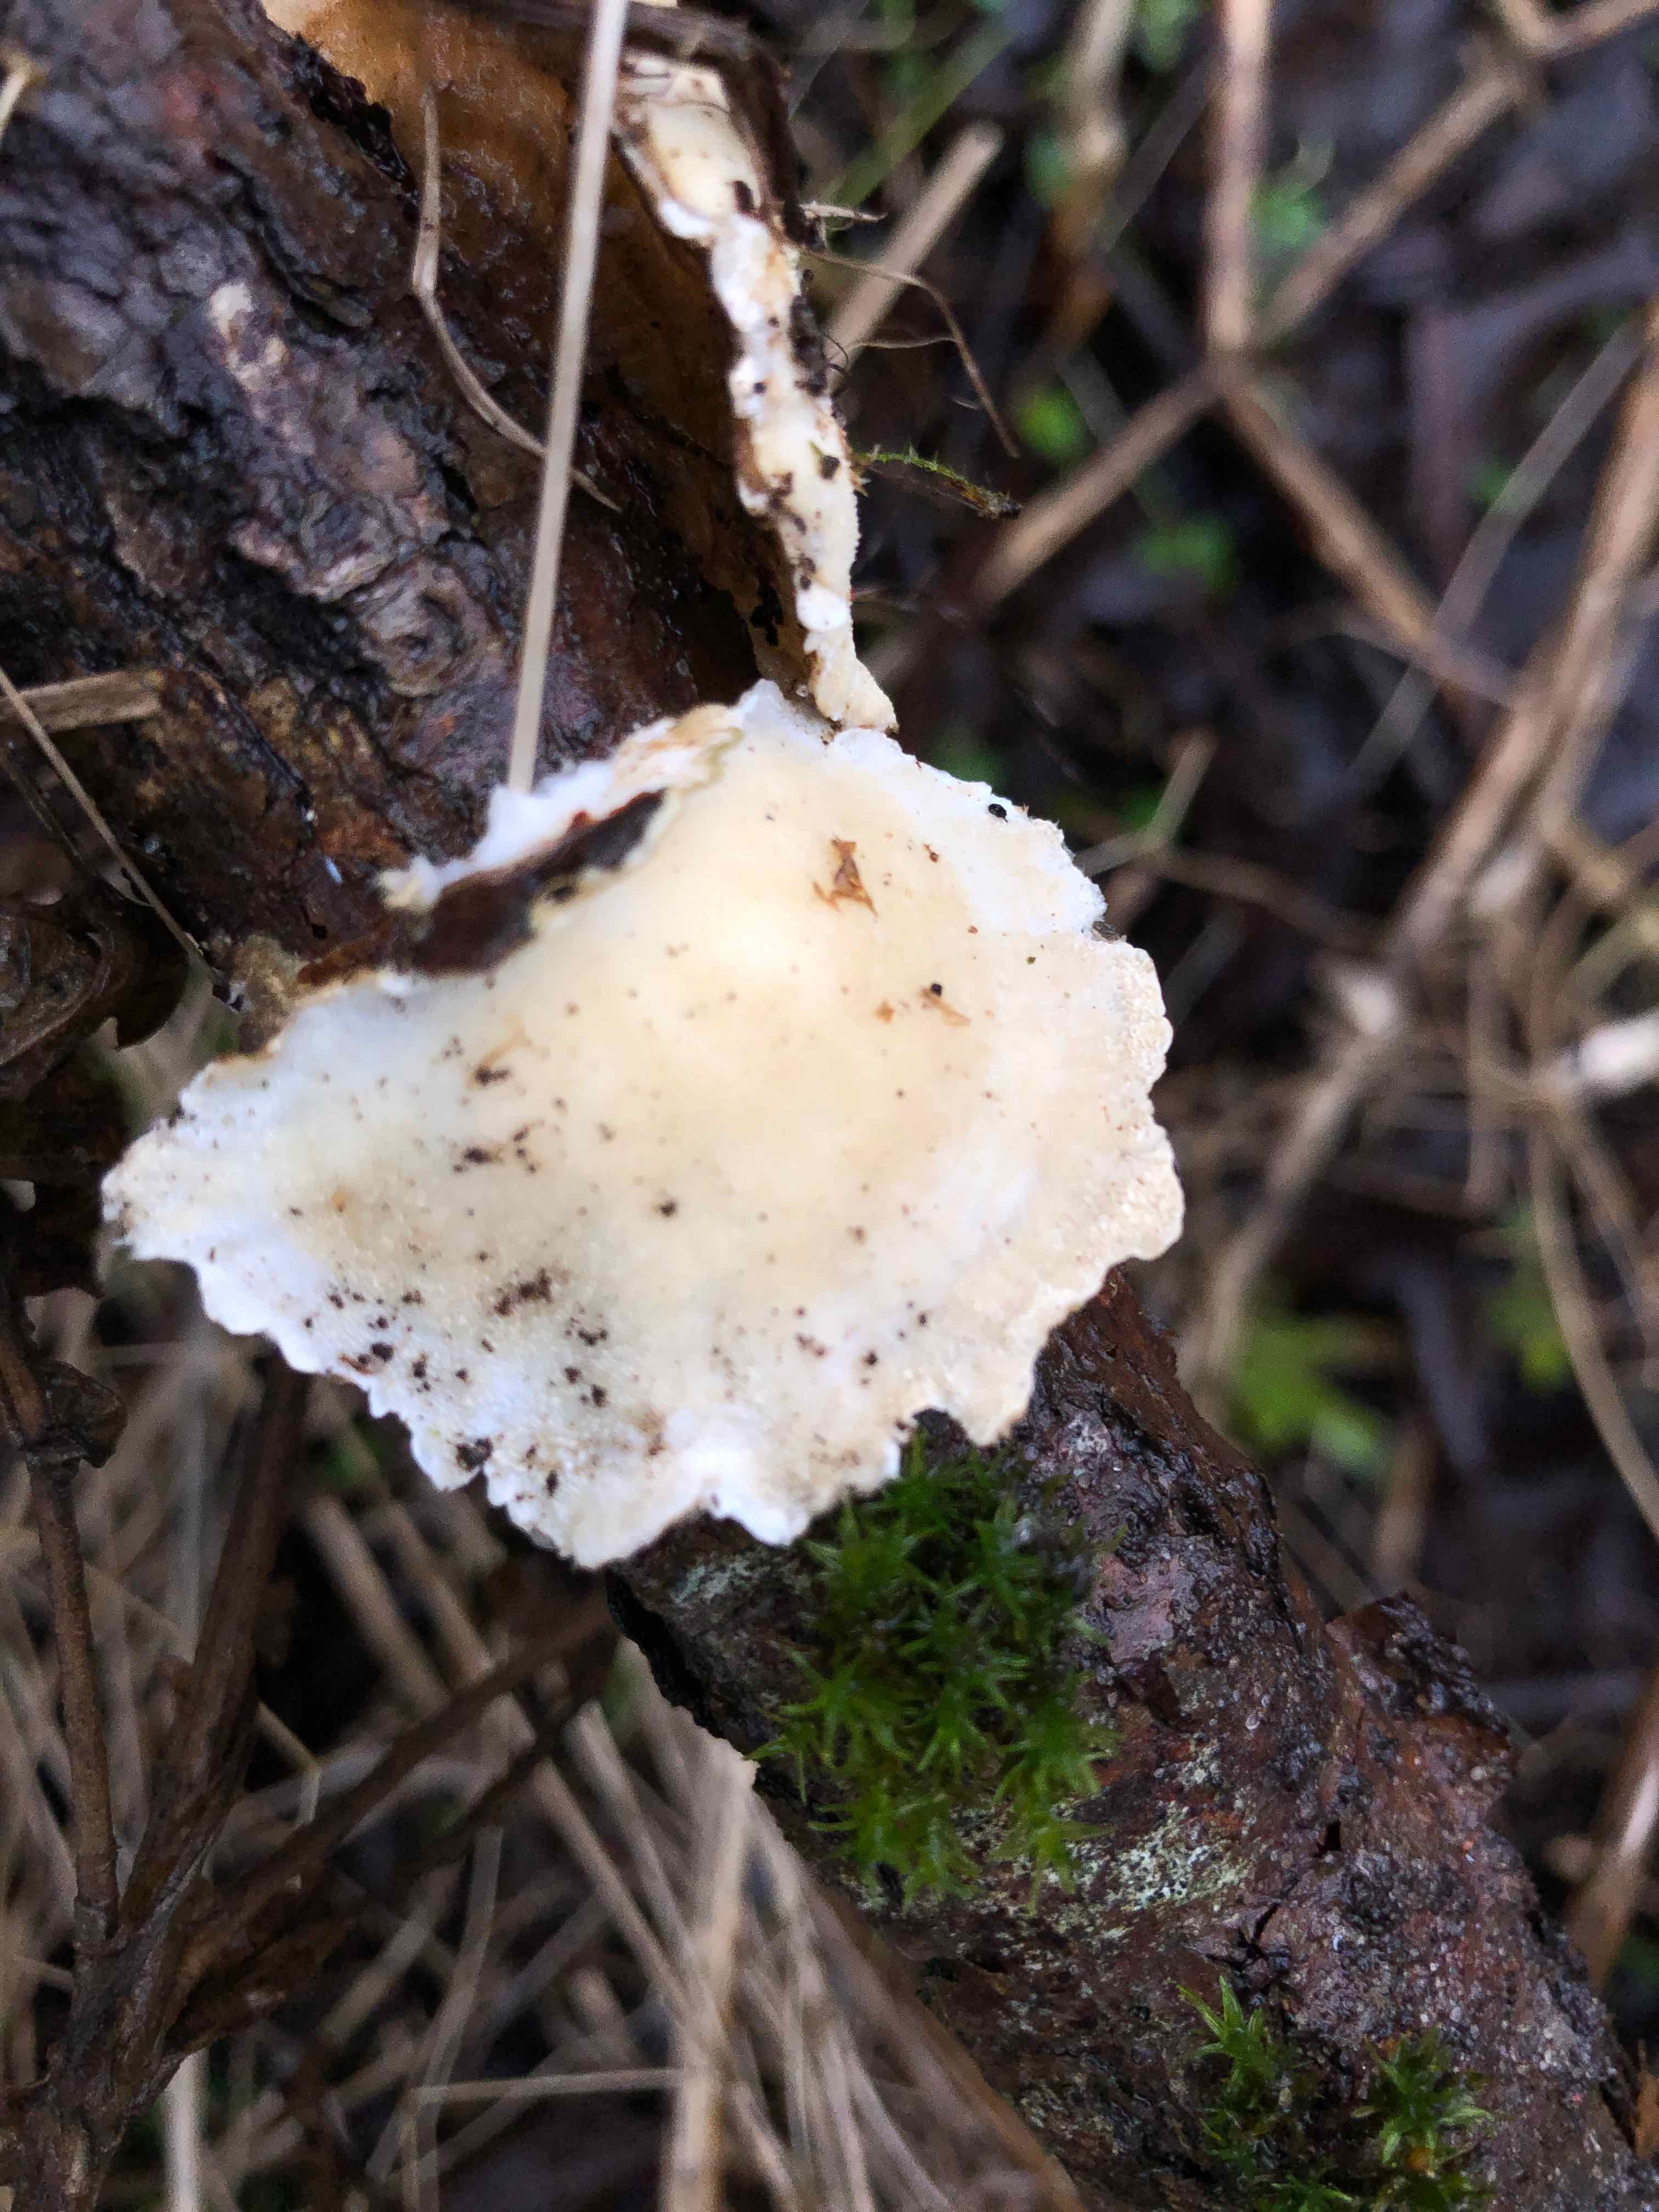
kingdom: Fungi
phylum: Basidiomycota
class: Agaricomycetes
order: Polyporales
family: Polyporaceae
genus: Trametes
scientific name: Trametes versicolor
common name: broget læderporesvamp
